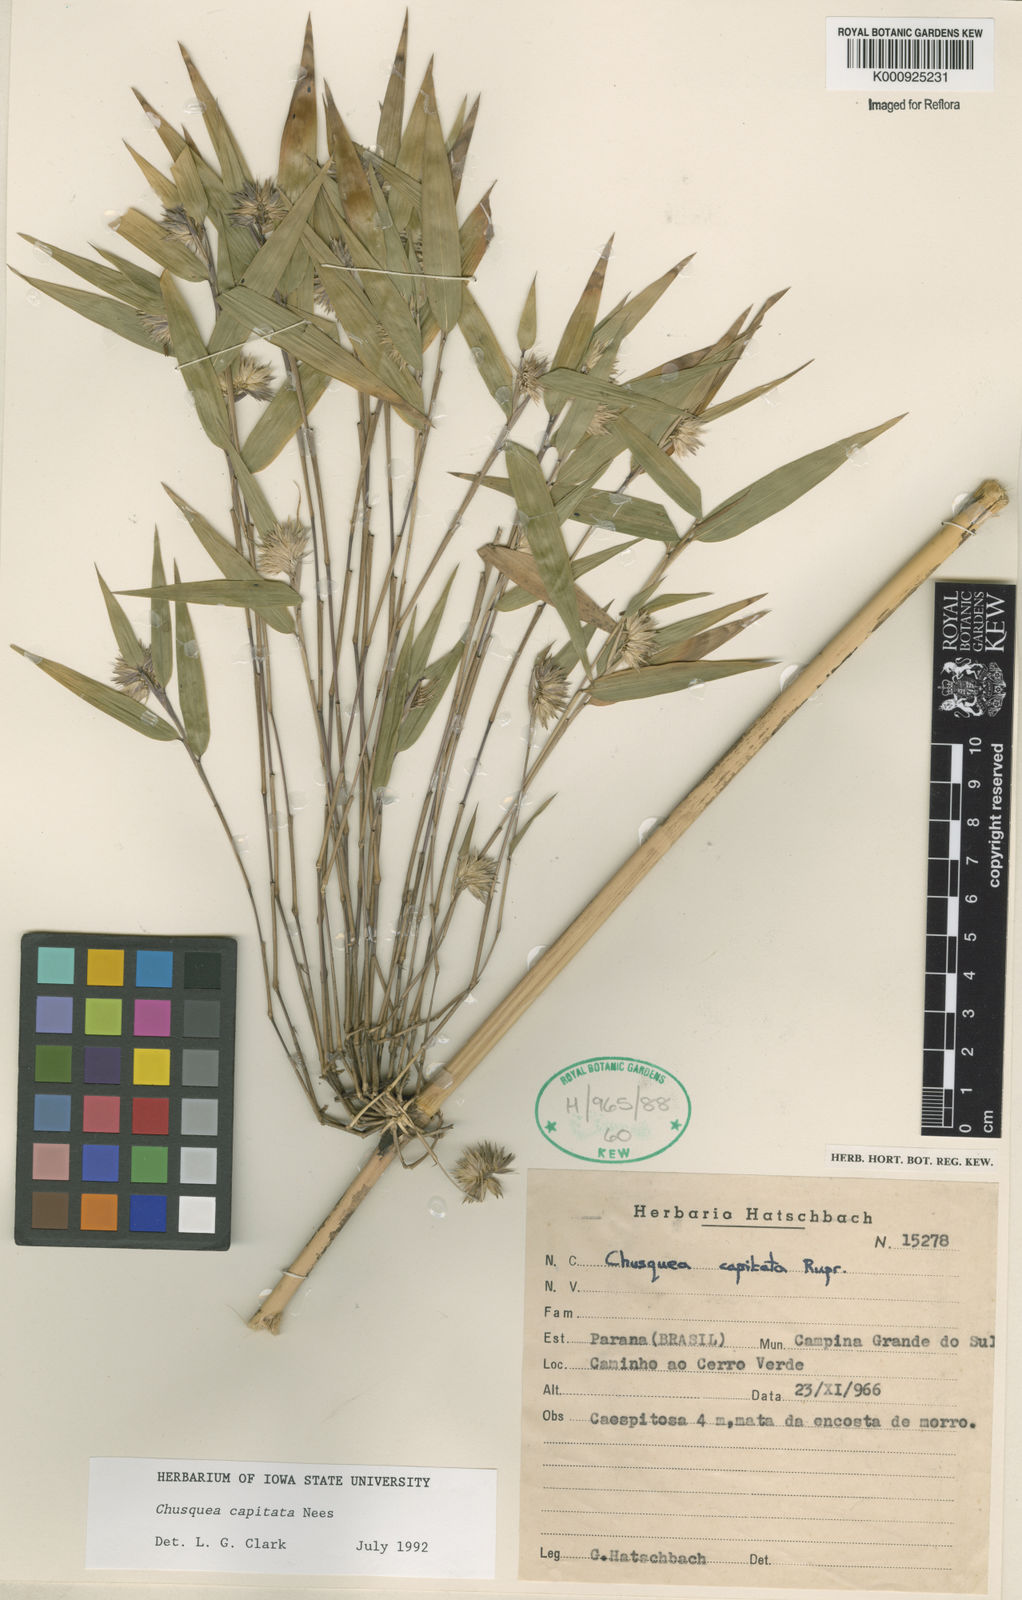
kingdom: Plantae
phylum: Tracheophyta
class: Liliopsida
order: Poales
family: Poaceae
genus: Chusquea
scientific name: Chusquea capitata
